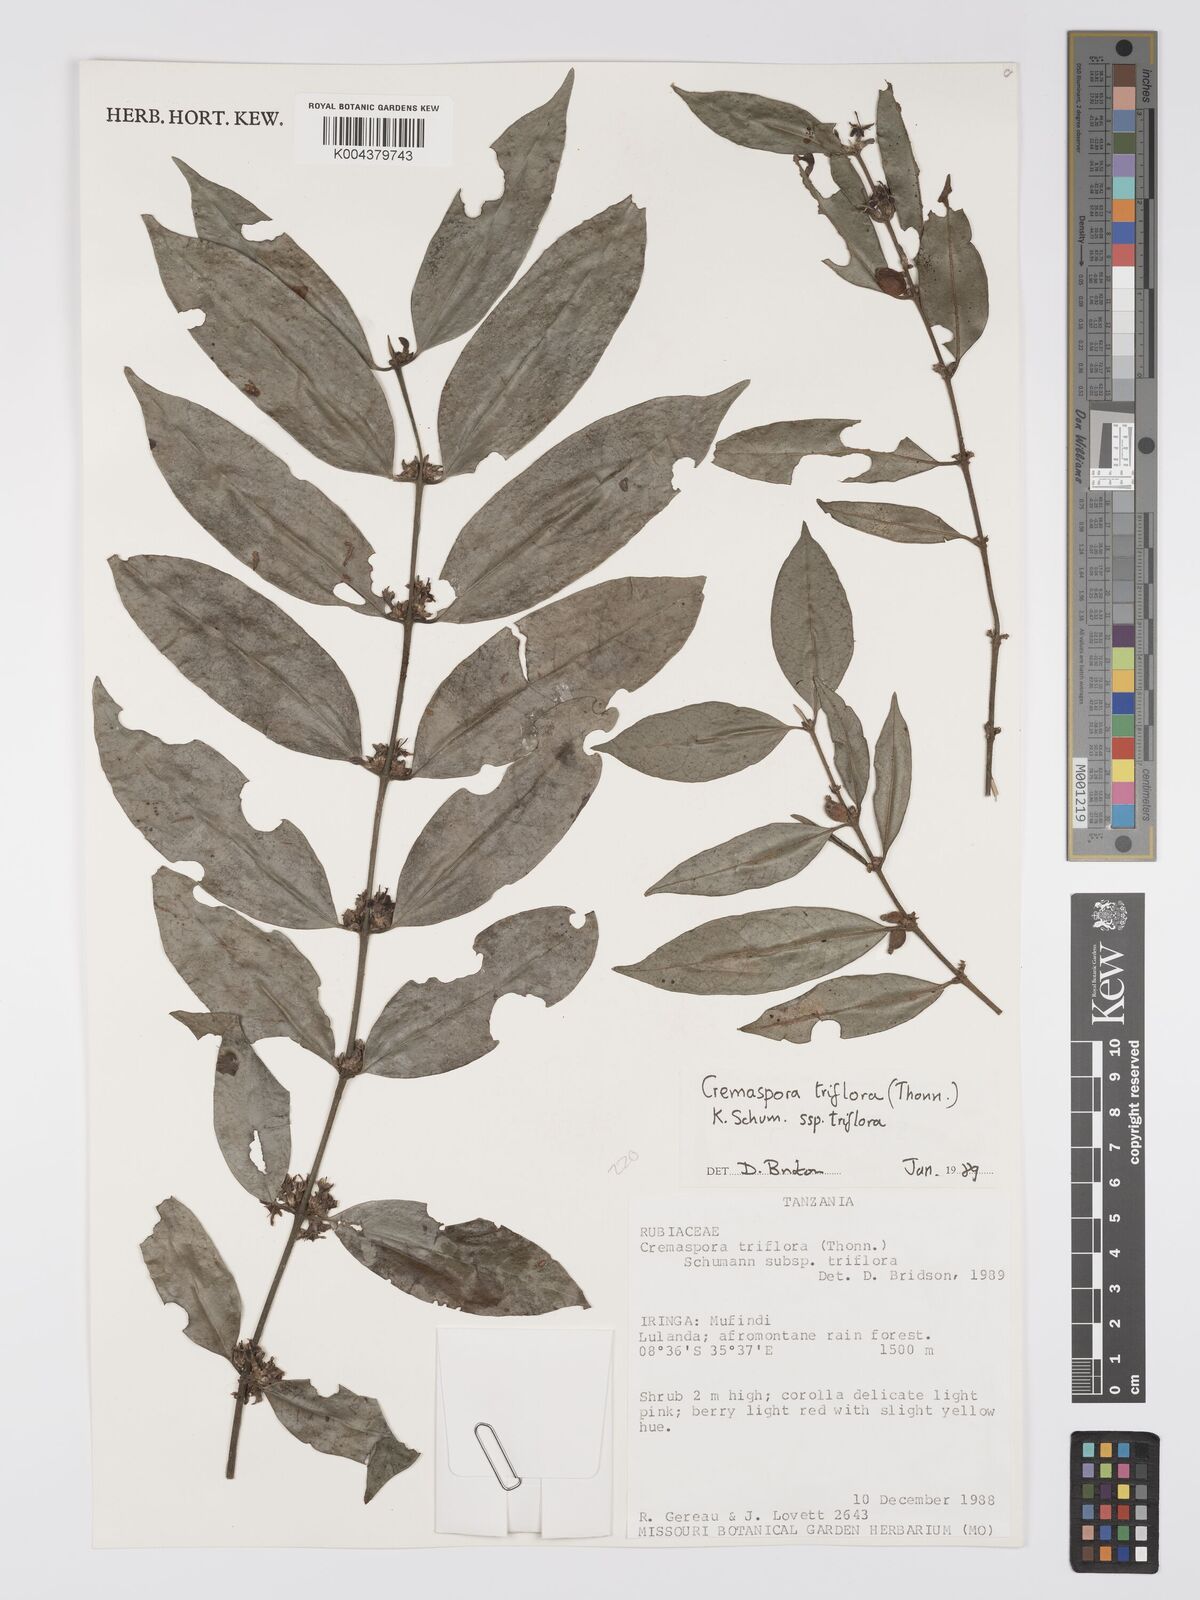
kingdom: Plantae
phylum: Tracheophyta
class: Magnoliopsida
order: Gentianales
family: Rubiaceae
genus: Cremaspora
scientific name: Cremaspora triflora
